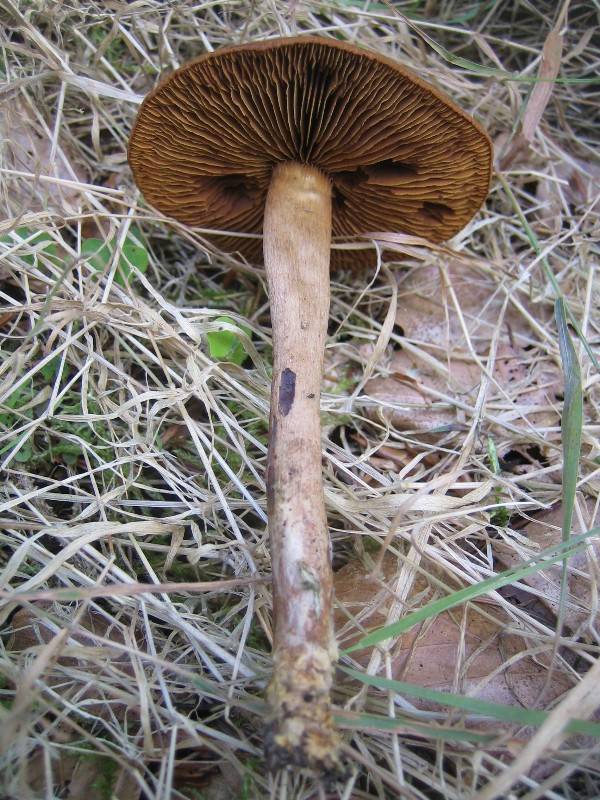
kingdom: Fungi
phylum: Basidiomycota
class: Agaricomycetes
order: Agaricales
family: Cortinariaceae
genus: Cortinarius
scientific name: Cortinarius
